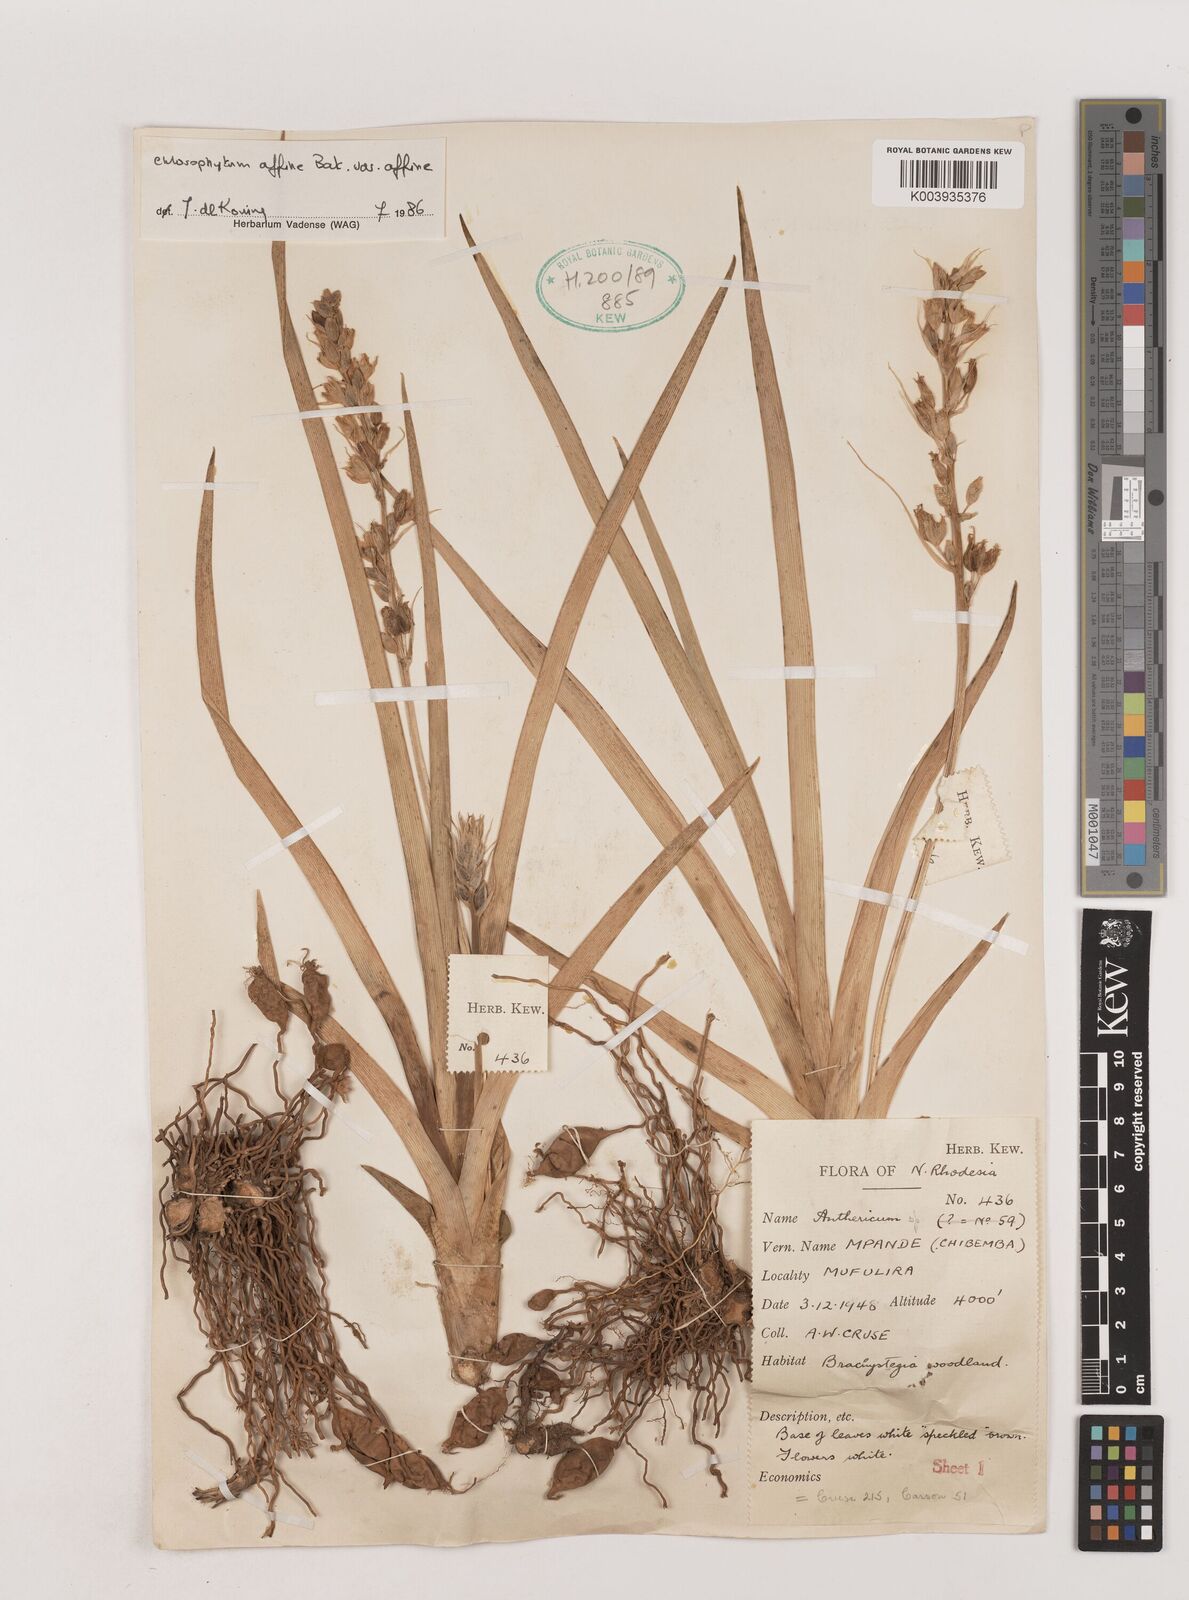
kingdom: Plantae
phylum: Tracheophyta
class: Liliopsida
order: Asparagales
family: Asparagaceae
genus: Chlorophytum
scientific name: Chlorophytum affine
